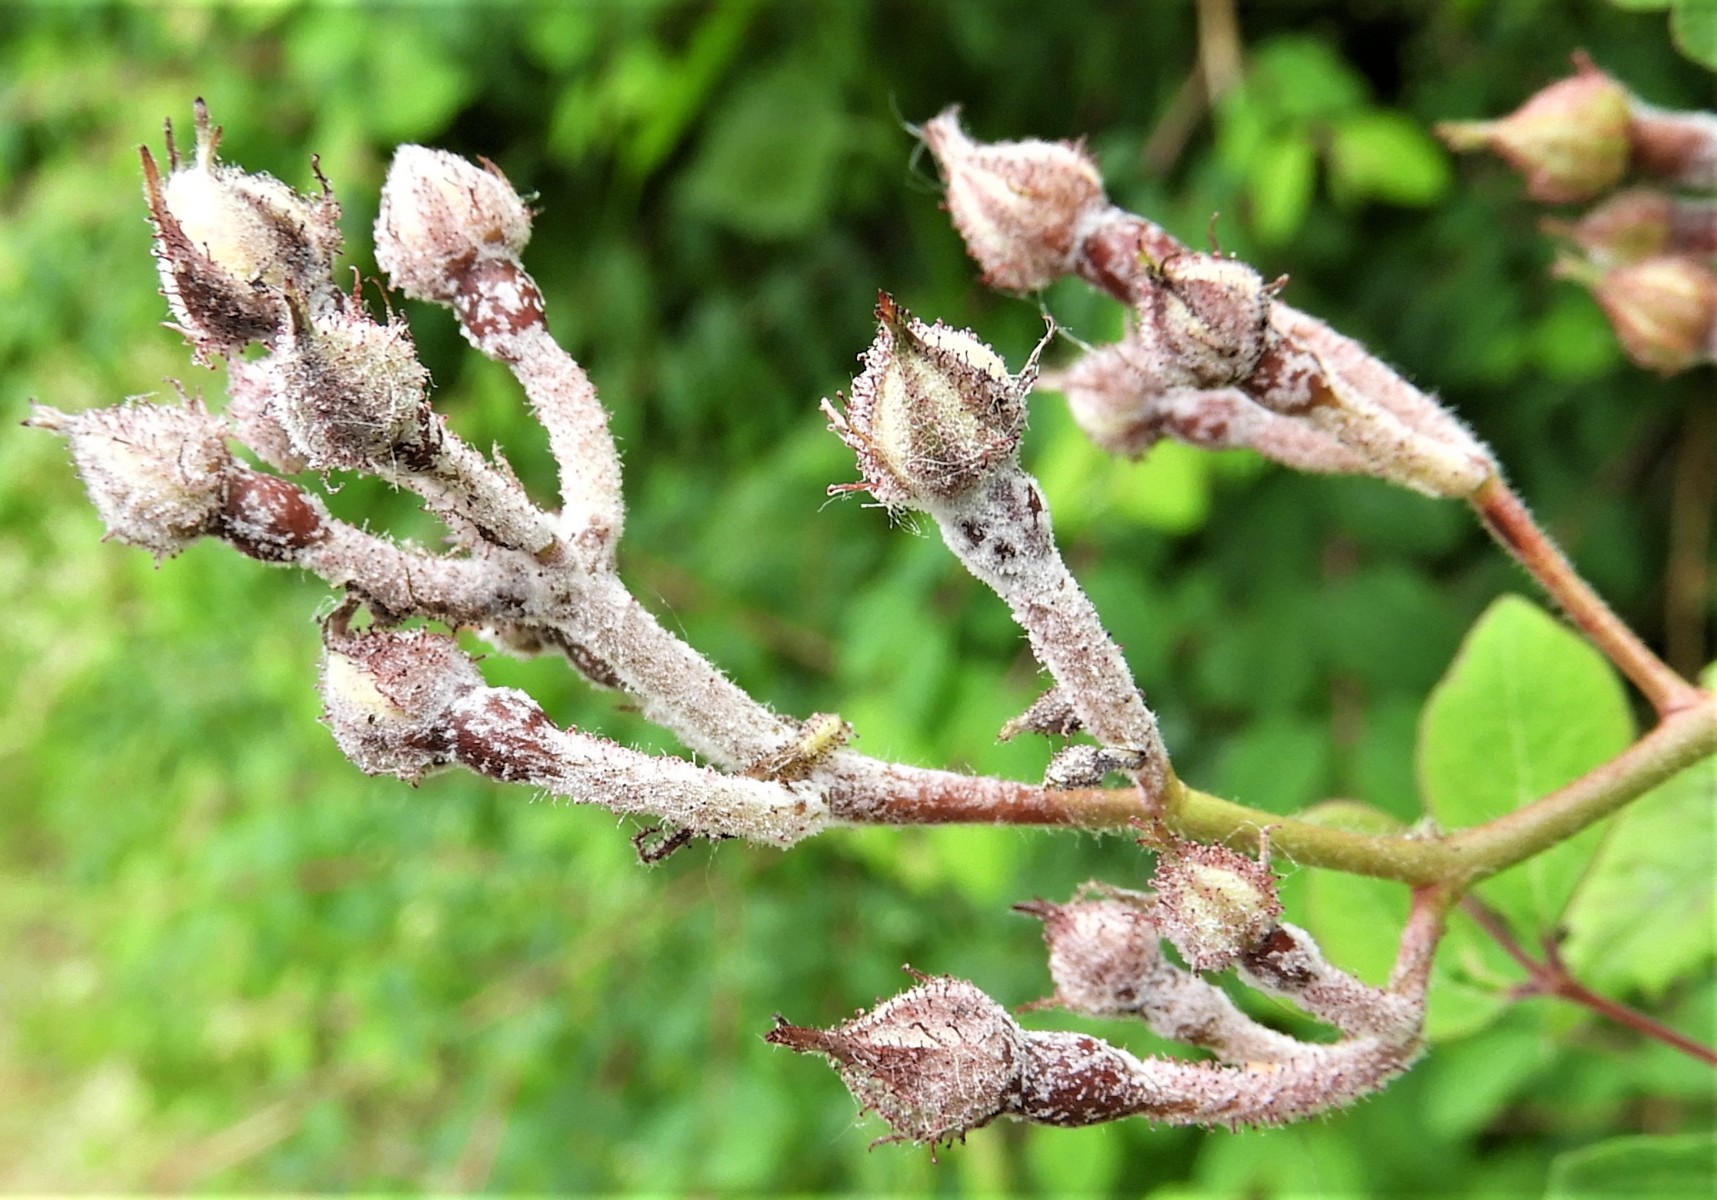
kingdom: Fungi
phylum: Ascomycota
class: Leotiomycetes
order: Helotiales
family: Erysiphaceae
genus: Podosphaera
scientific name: Podosphaera pannosa
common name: Rose mildew
